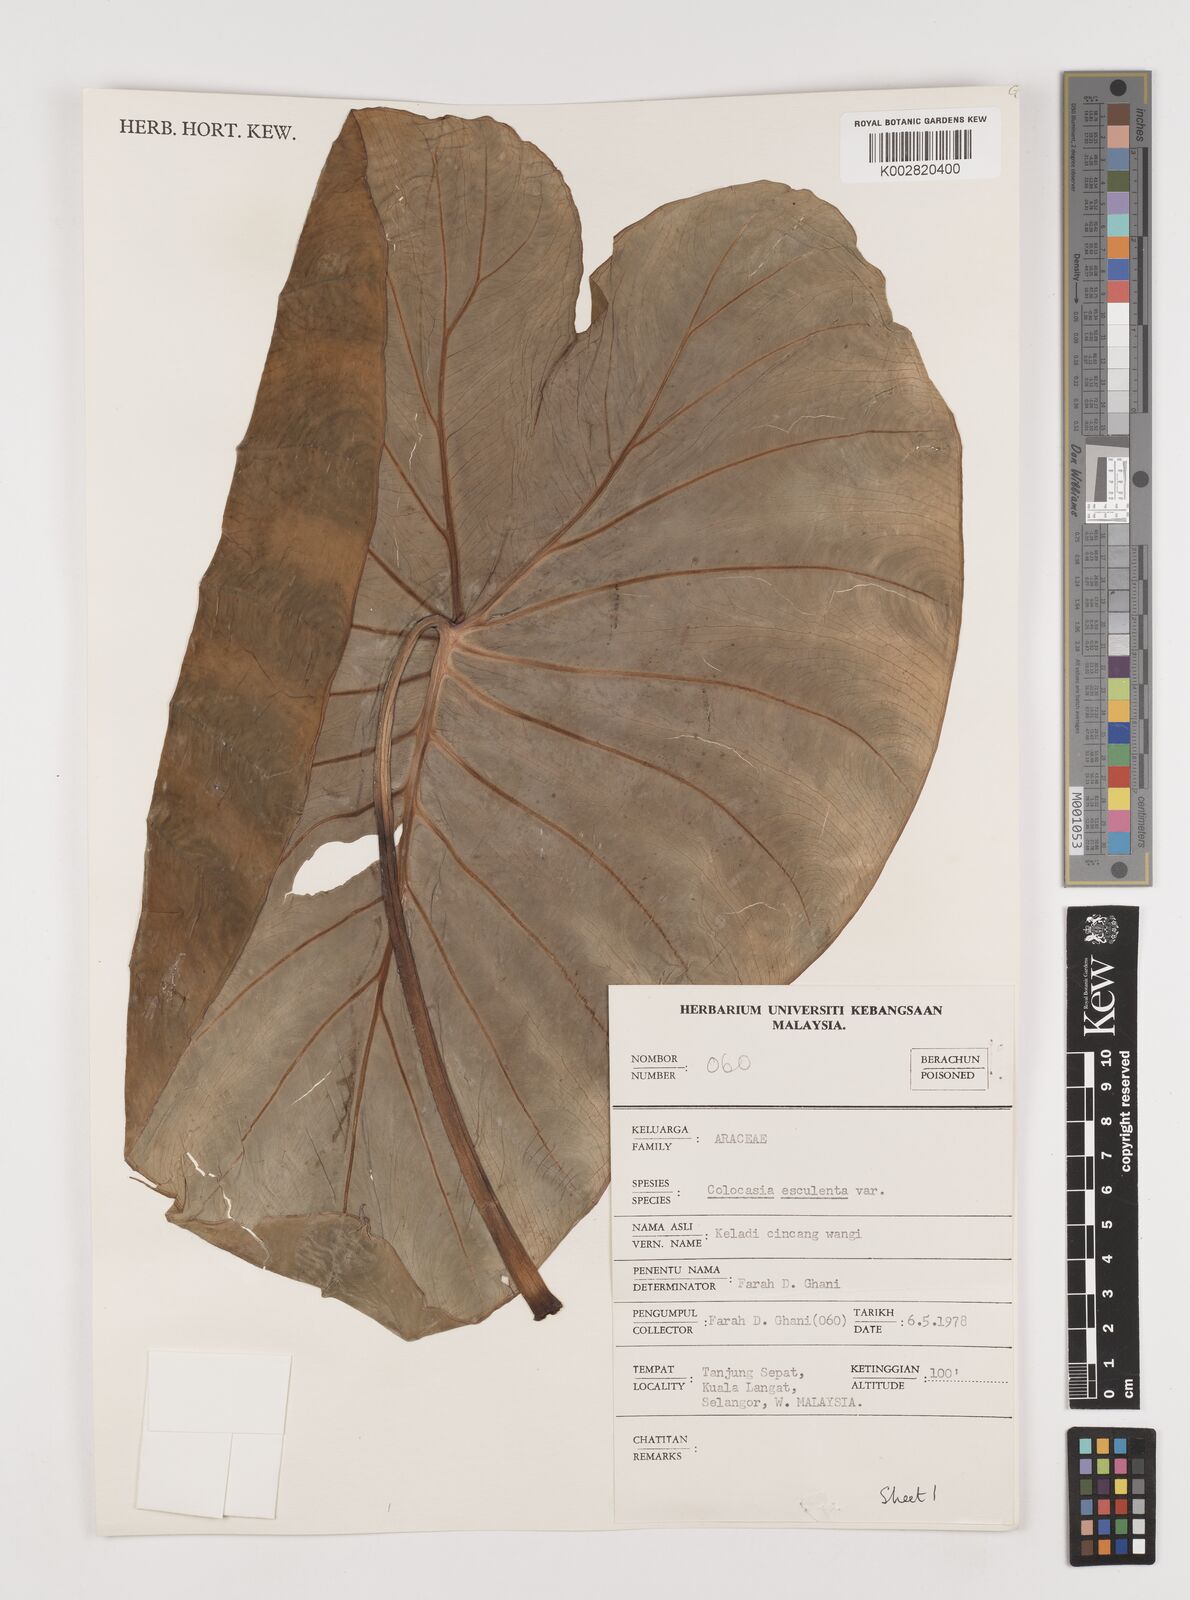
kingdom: Plantae
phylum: Tracheophyta
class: Liliopsida
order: Alismatales
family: Araceae
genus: Colocasia
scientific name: Colocasia esculenta
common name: Taro
